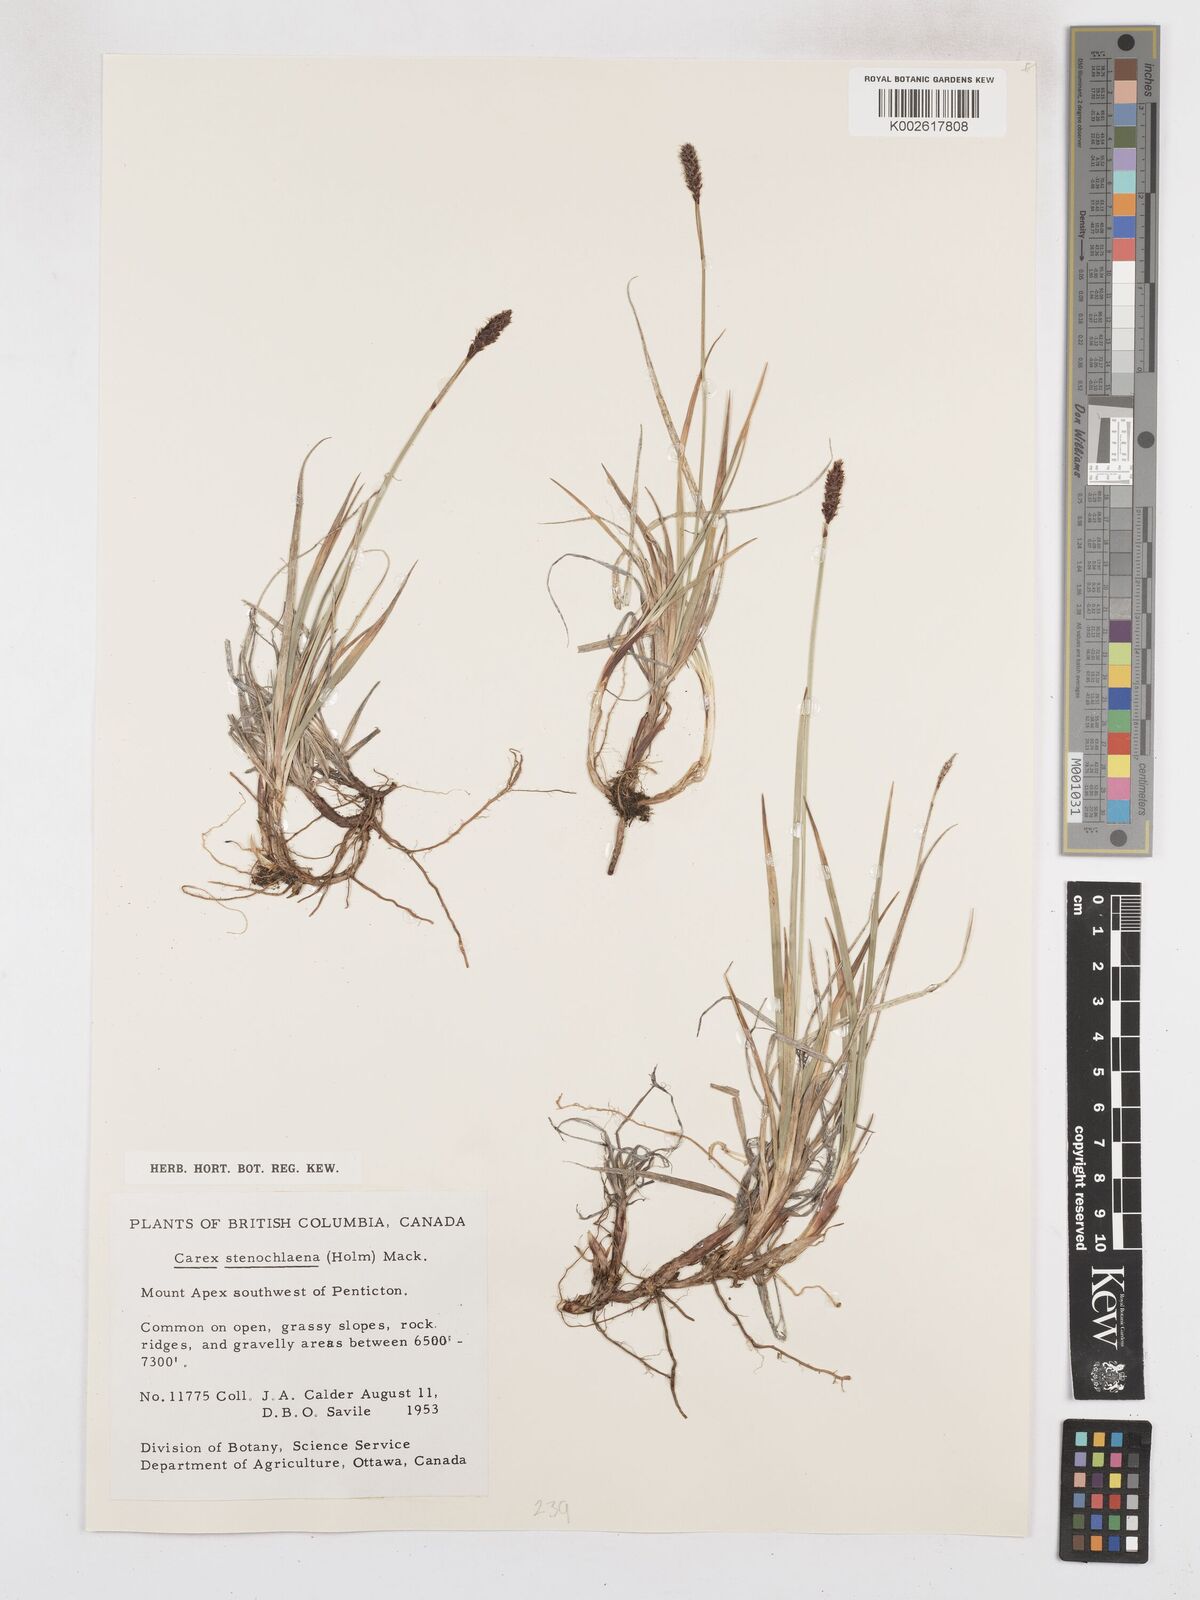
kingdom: Plantae
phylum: Tracheophyta
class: Liliopsida
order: Poales
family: Cyperaceae
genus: Carex
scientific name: Carex scirpoidea
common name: Canada single-spike sedge
